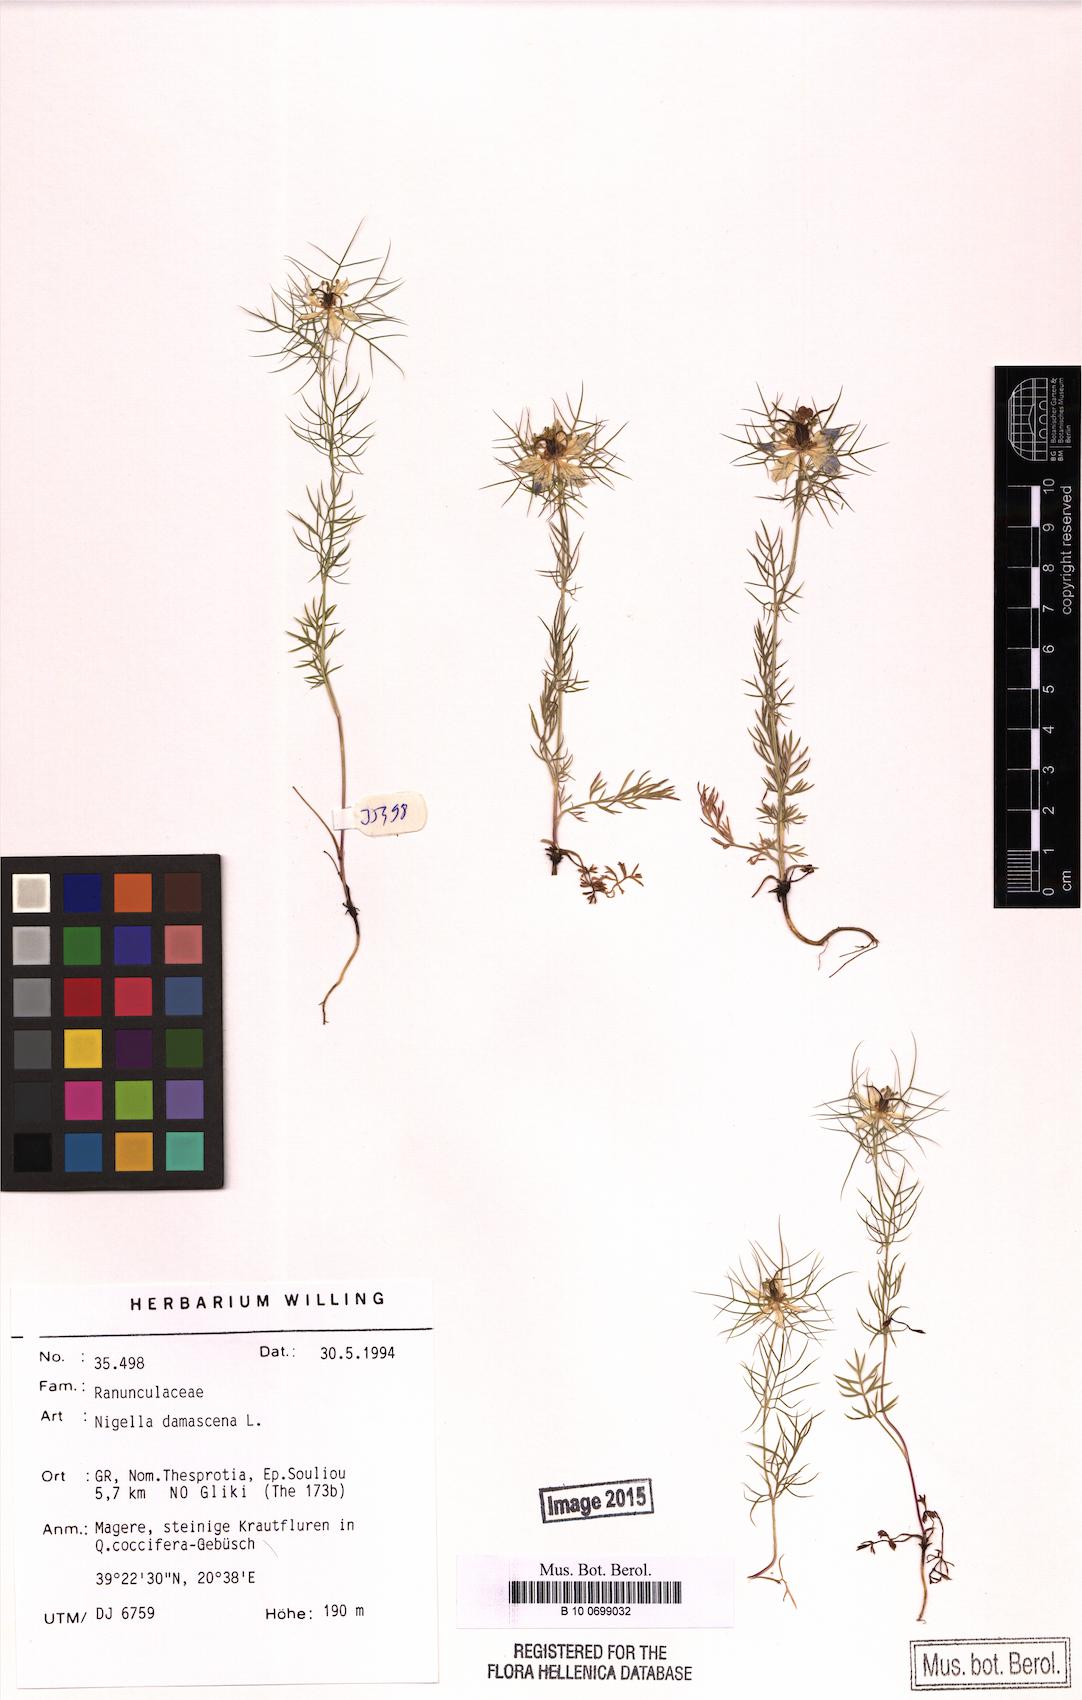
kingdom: Plantae
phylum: Tracheophyta
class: Magnoliopsida
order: Ranunculales
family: Ranunculaceae
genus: Nigella
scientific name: Nigella damascena
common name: Love-in-a-mist
